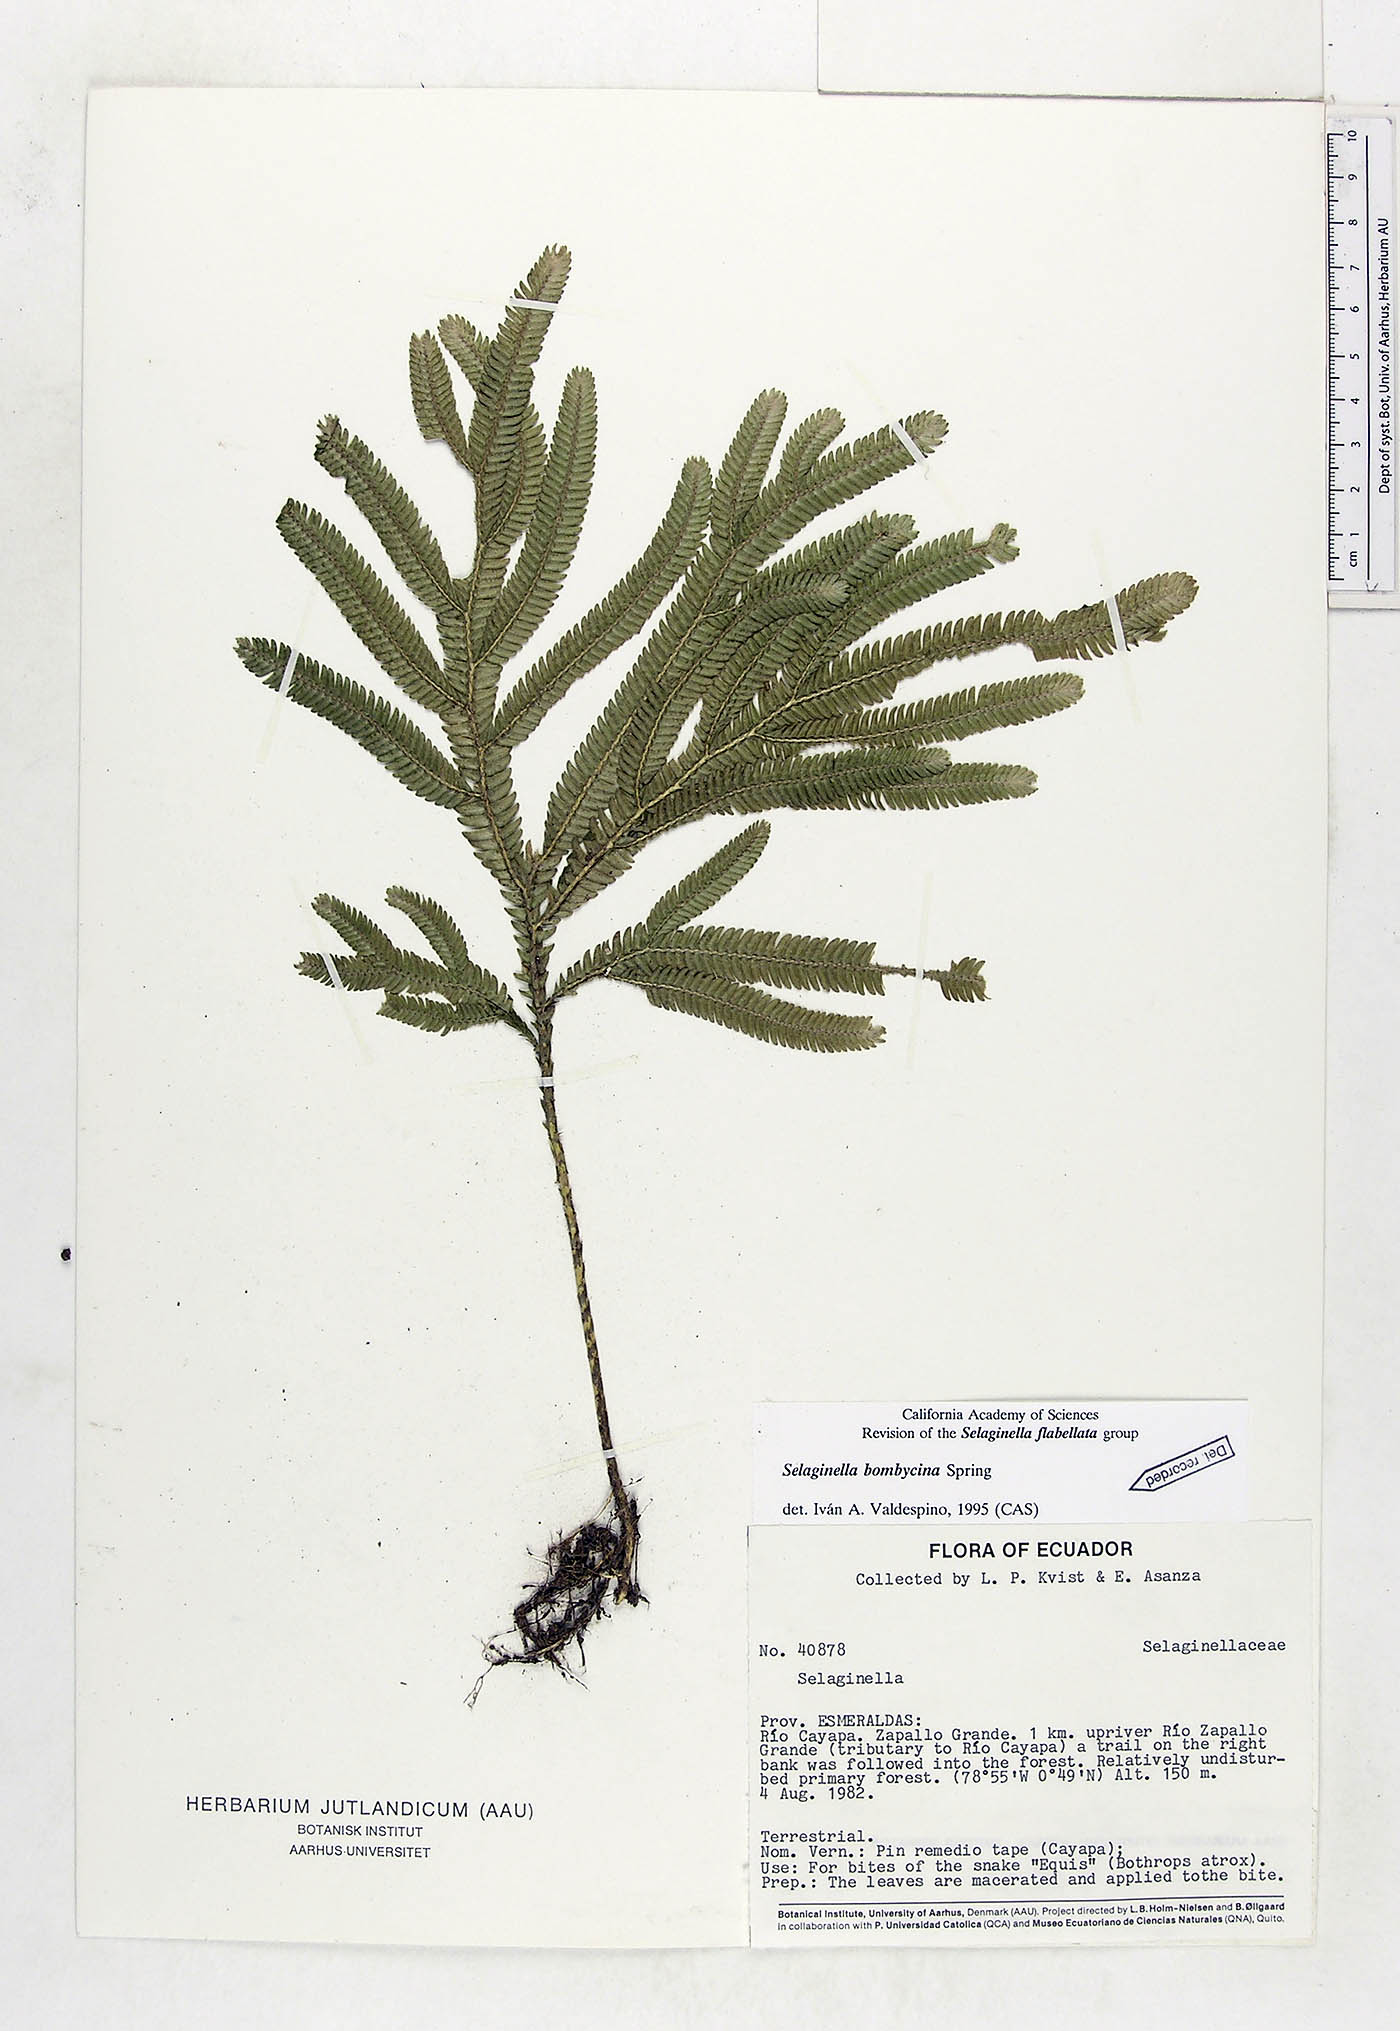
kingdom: Plantae
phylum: Tracheophyta
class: Lycopodiopsida
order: Selaginellales
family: Selaginellaceae
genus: Selaginella
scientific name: Selaginella bombycina
